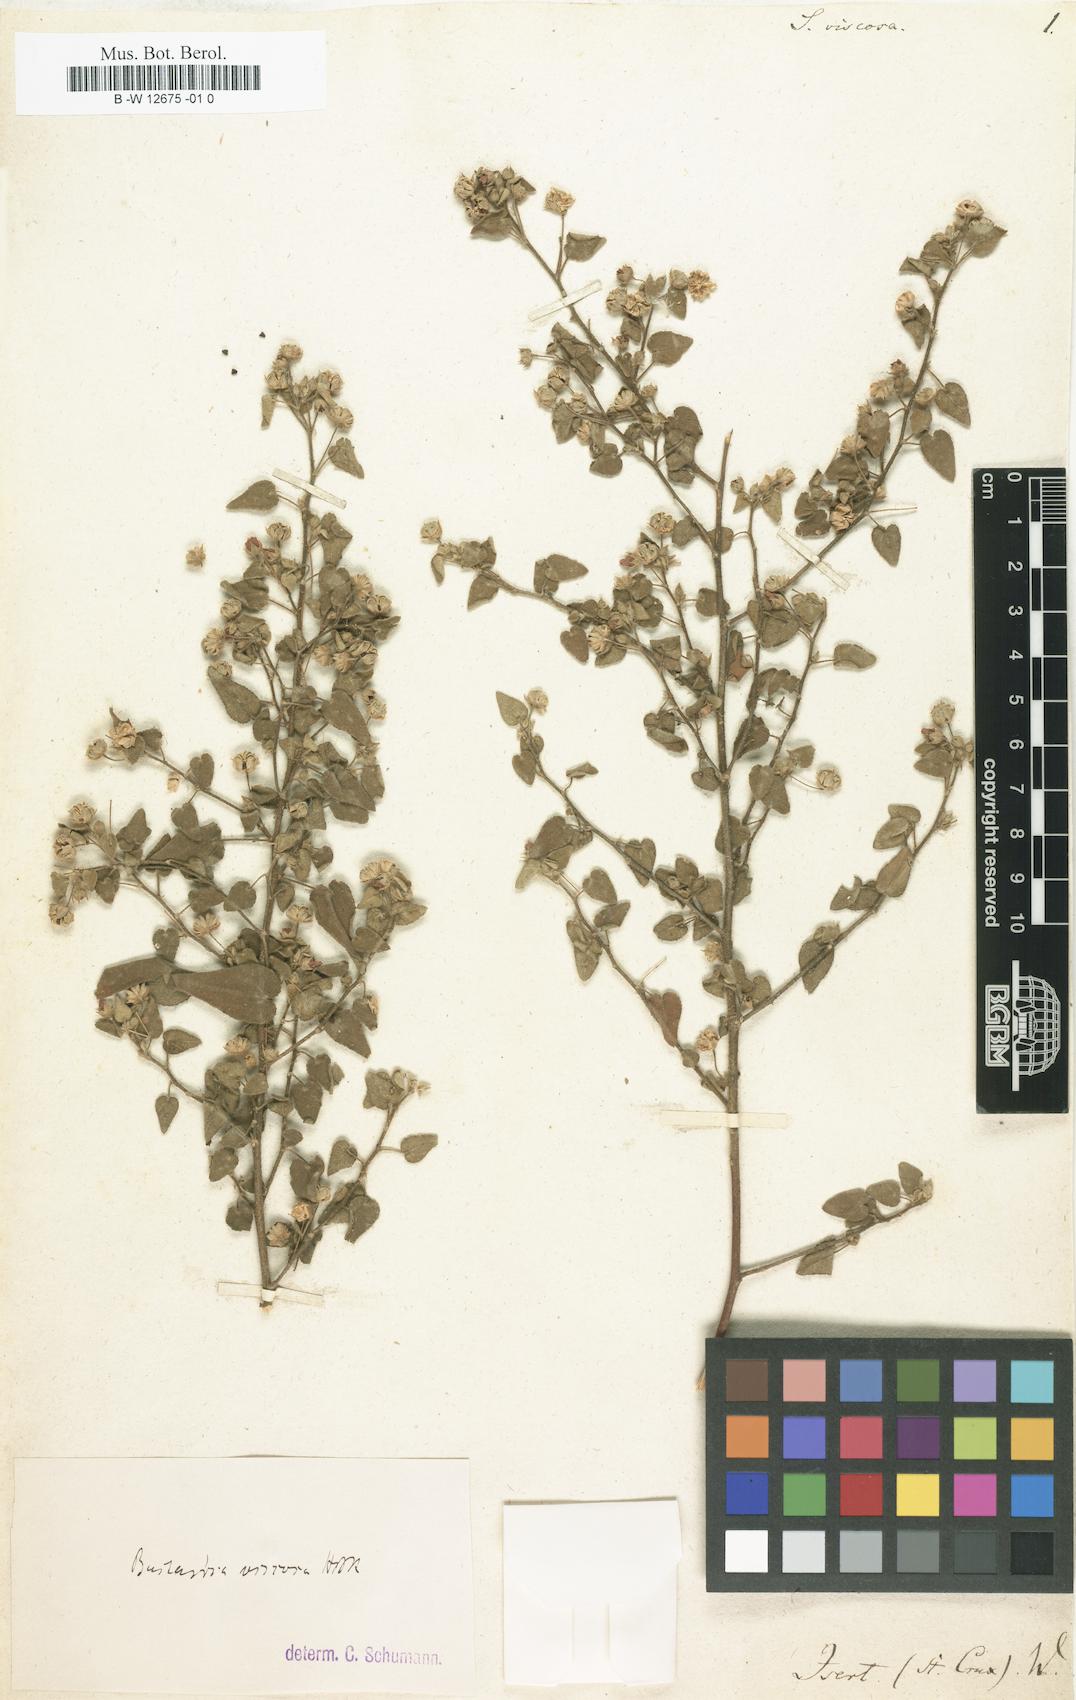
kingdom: Plantae
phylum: Tracheophyta
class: Magnoliopsida
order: Malvales
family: Malvaceae
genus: Abutilon
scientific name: Abutilon
